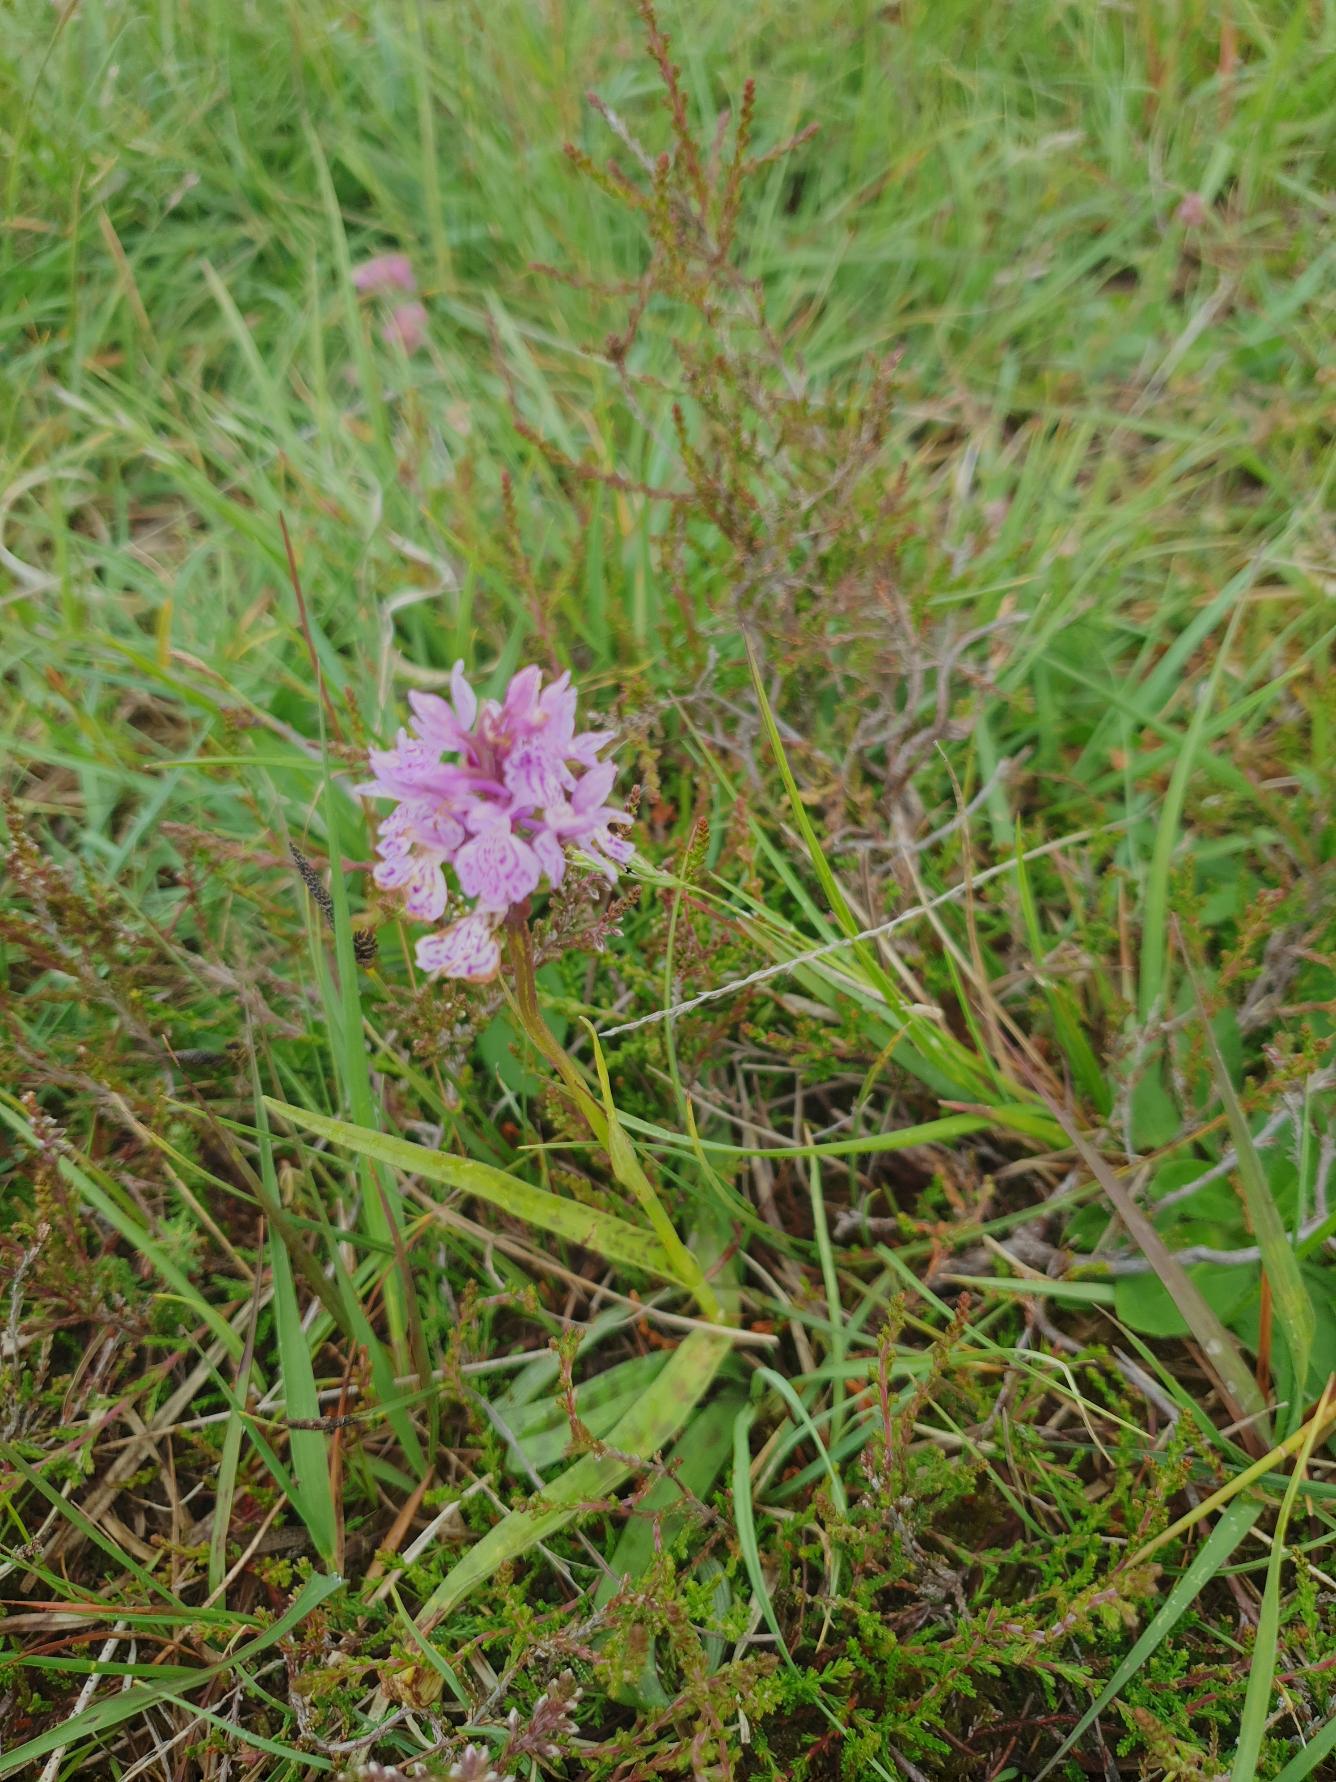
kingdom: Plantae
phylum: Tracheophyta
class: Liliopsida
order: Asparagales
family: Orchidaceae
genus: Dactylorhiza
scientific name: Dactylorhiza maculata
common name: Plettet gøgeurt
